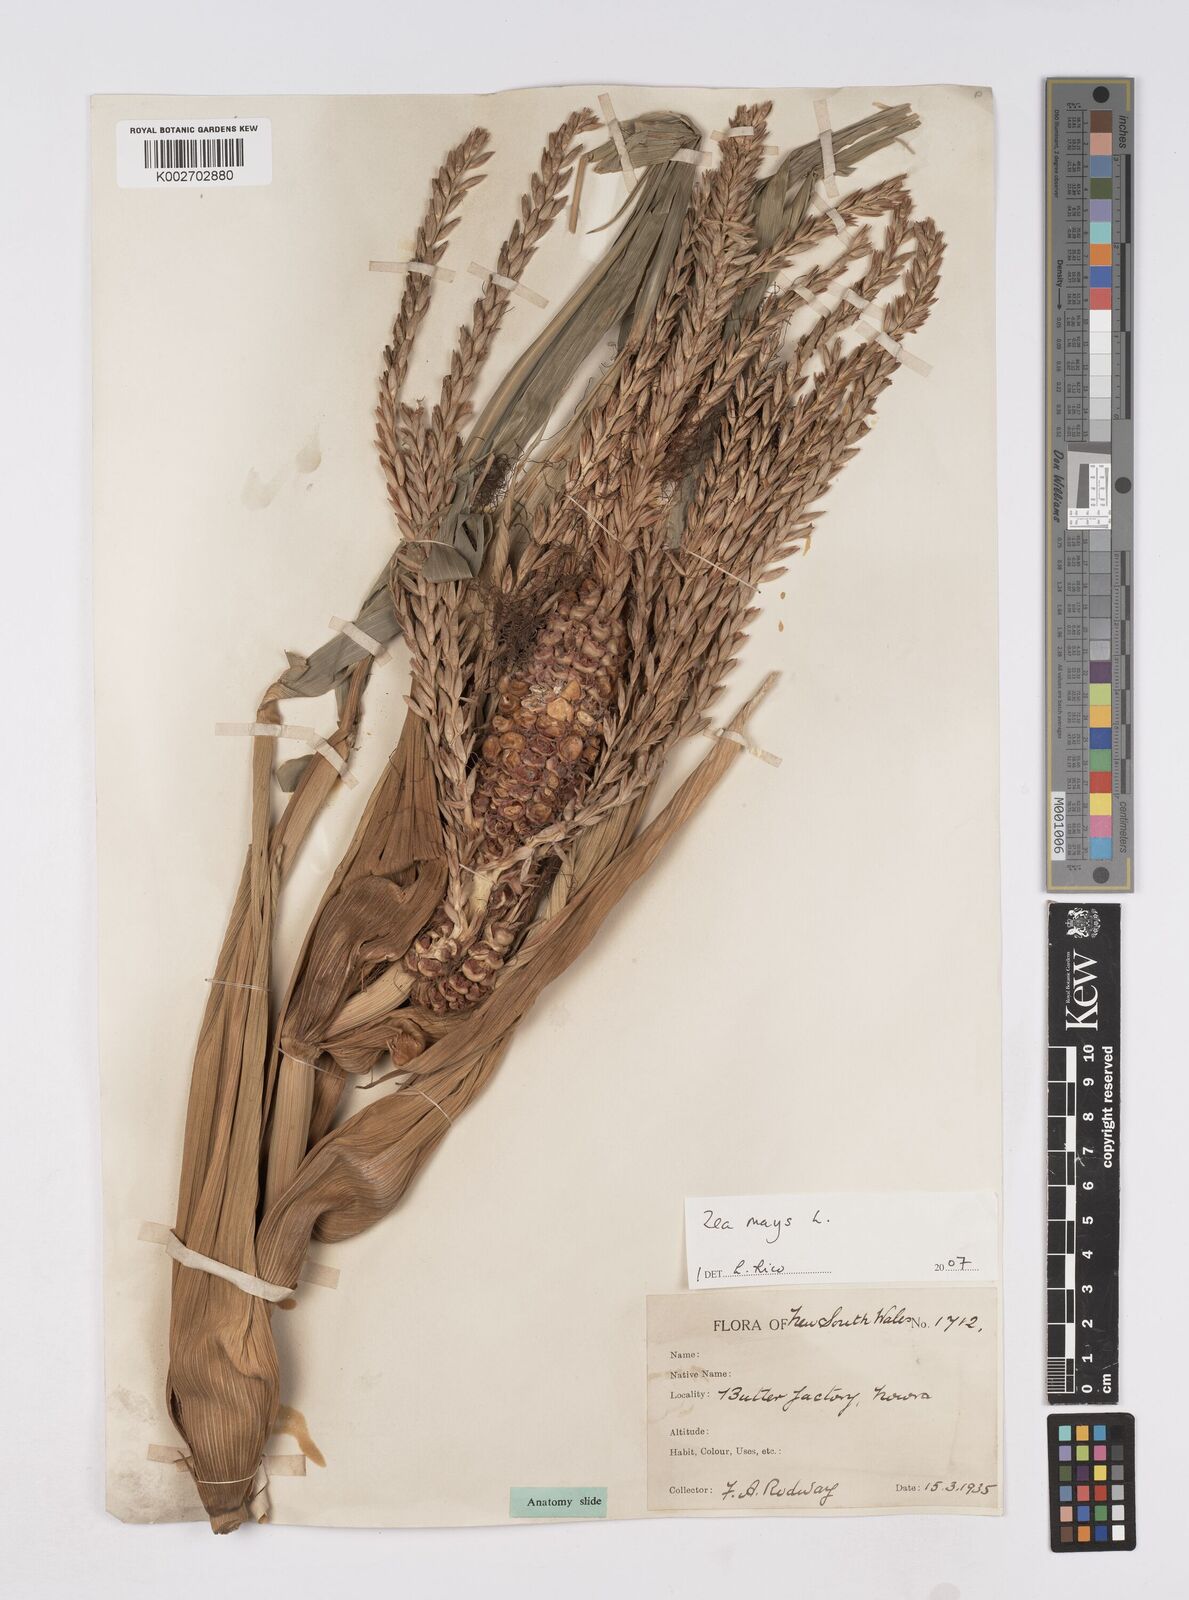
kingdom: Plantae
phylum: Tracheophyta
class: Liliopsida
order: Poales
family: Poaceae
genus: Zea
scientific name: Zea mays
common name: Maize
